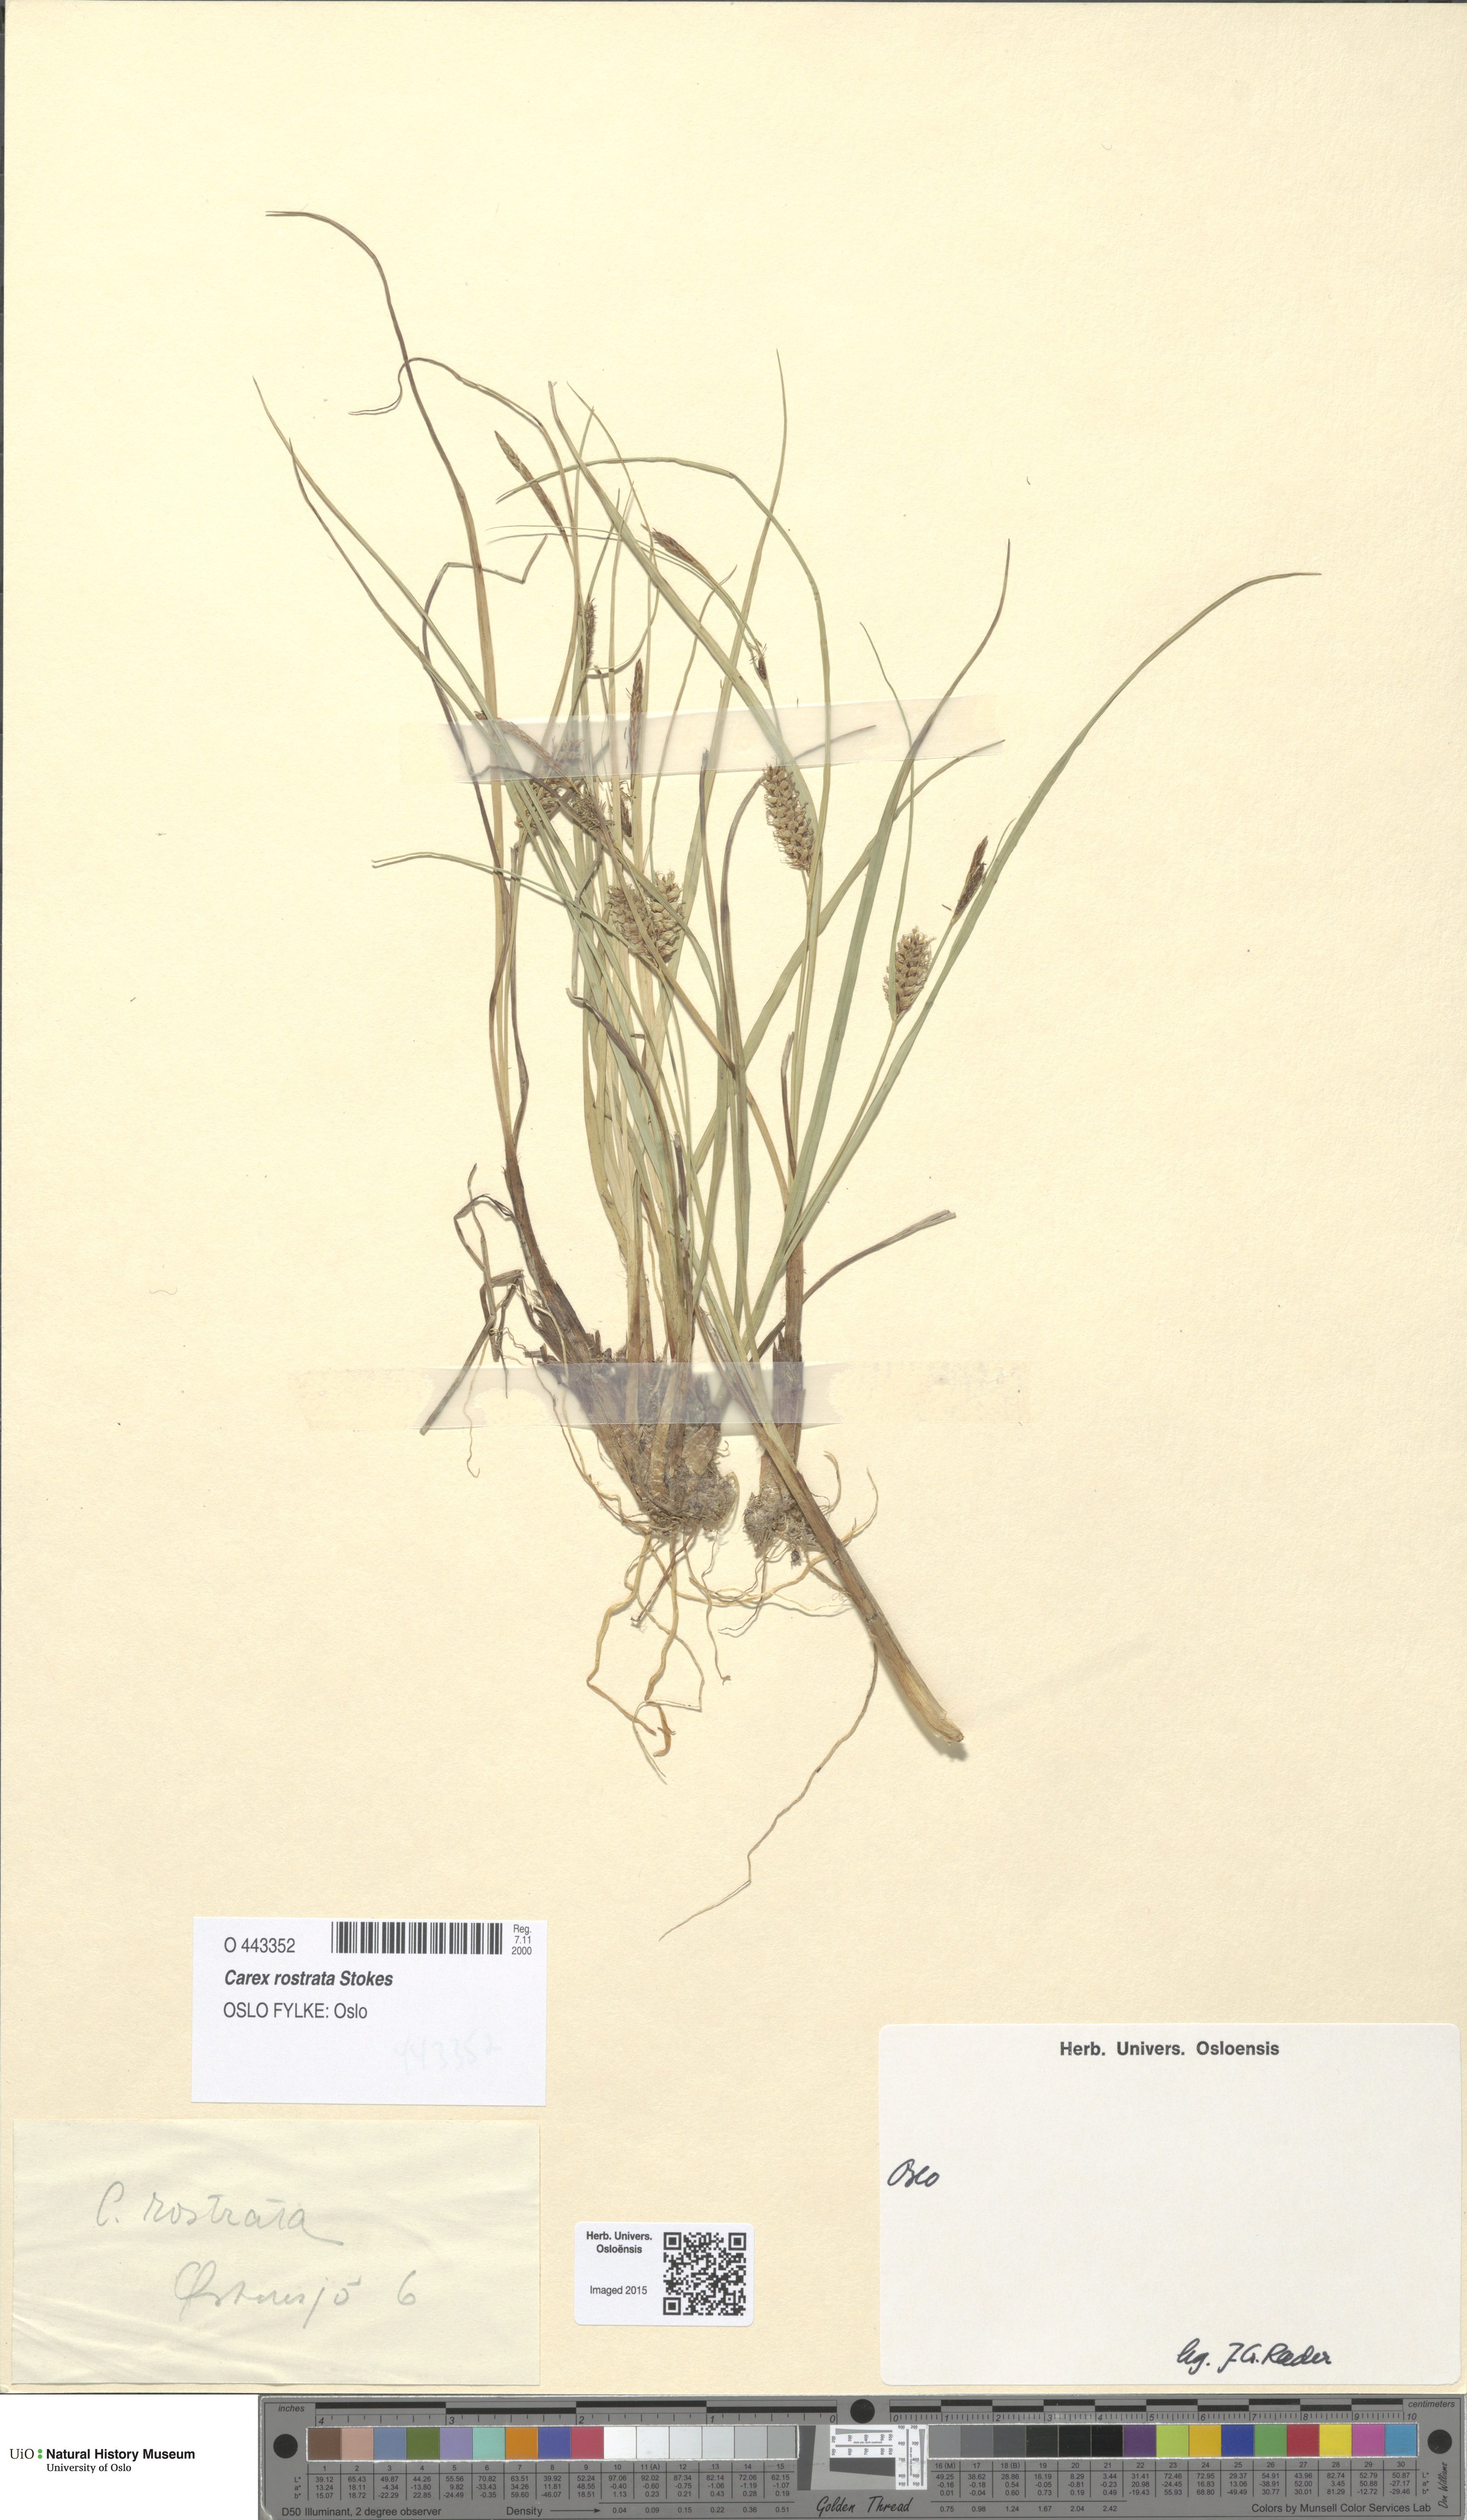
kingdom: Plantae
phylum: Tracheophyta
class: Liliopsida
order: Poales
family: Cyperaceae
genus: Carex
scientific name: Carex rostrata
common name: Bottle sedge
